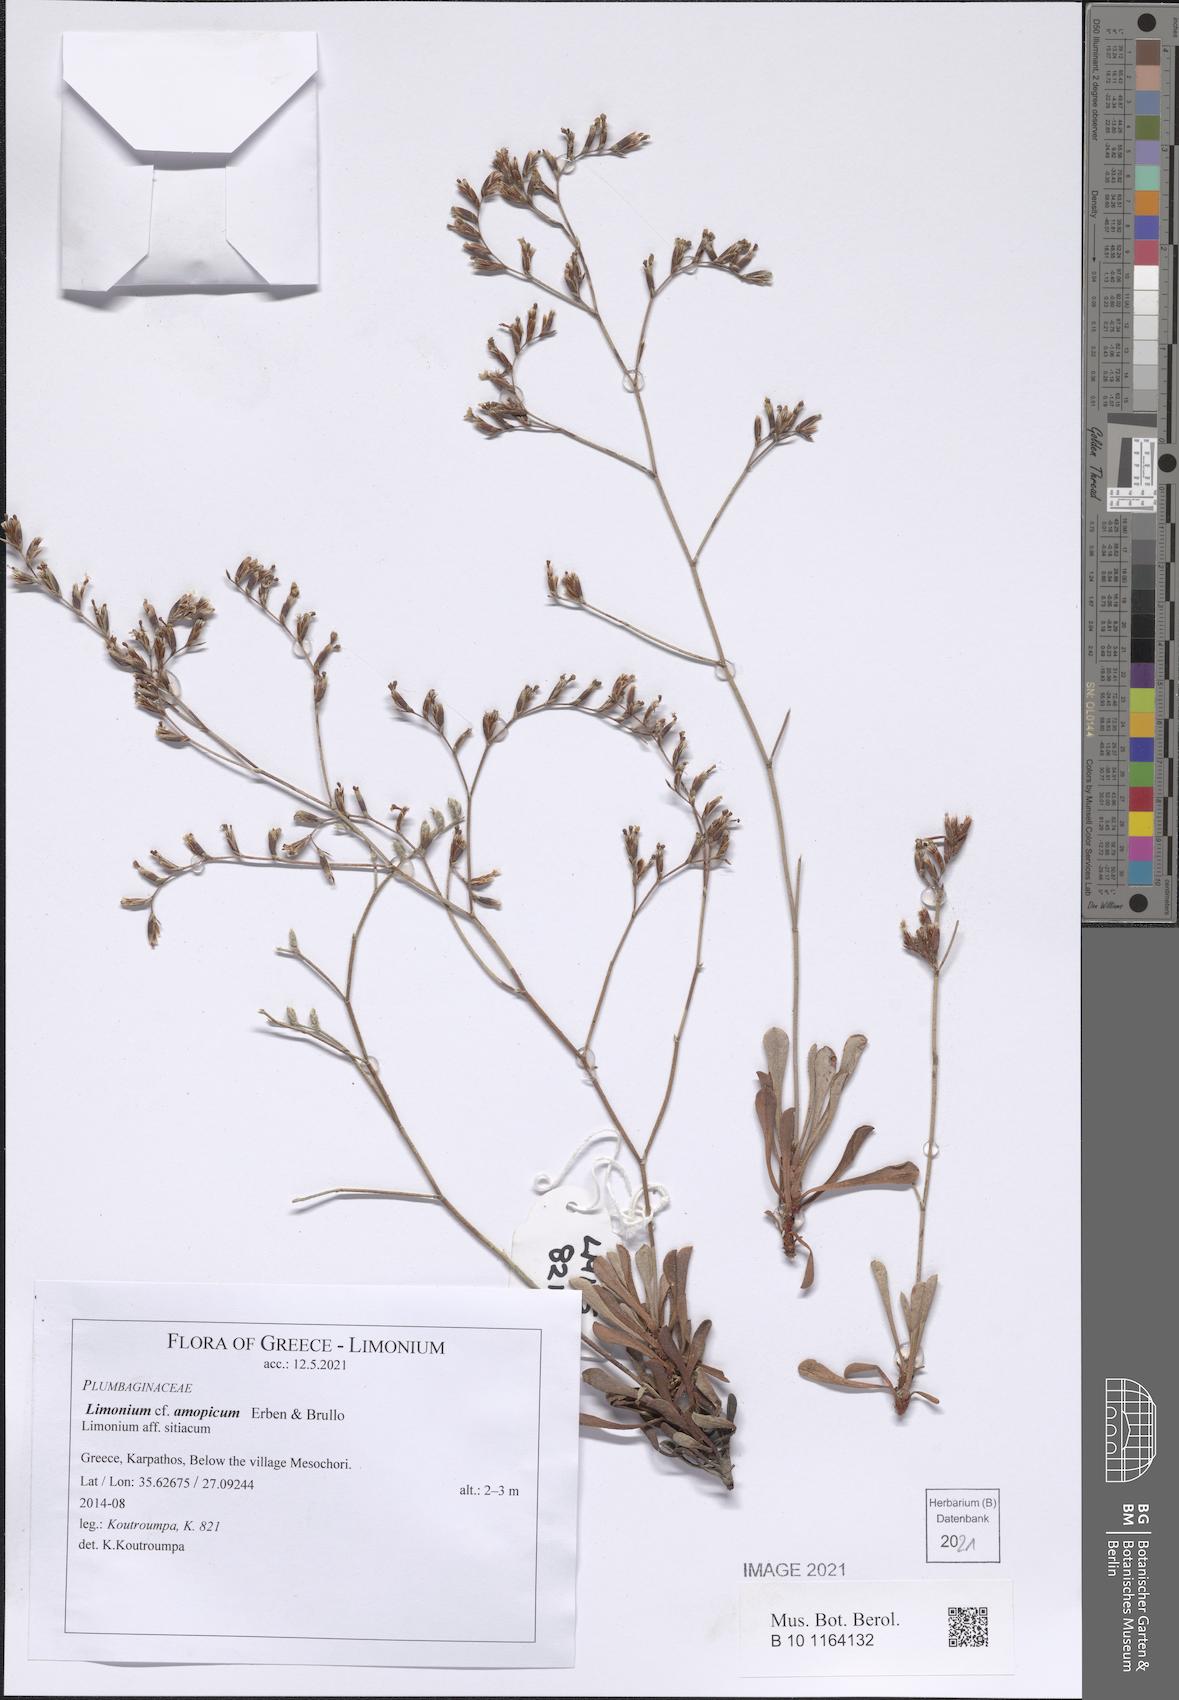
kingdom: Plantae
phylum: Tracheophyta
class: Magnoliopsida
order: Caryophyllales
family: Plumbaginaceae
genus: Limonium
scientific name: Limonium amopicum
